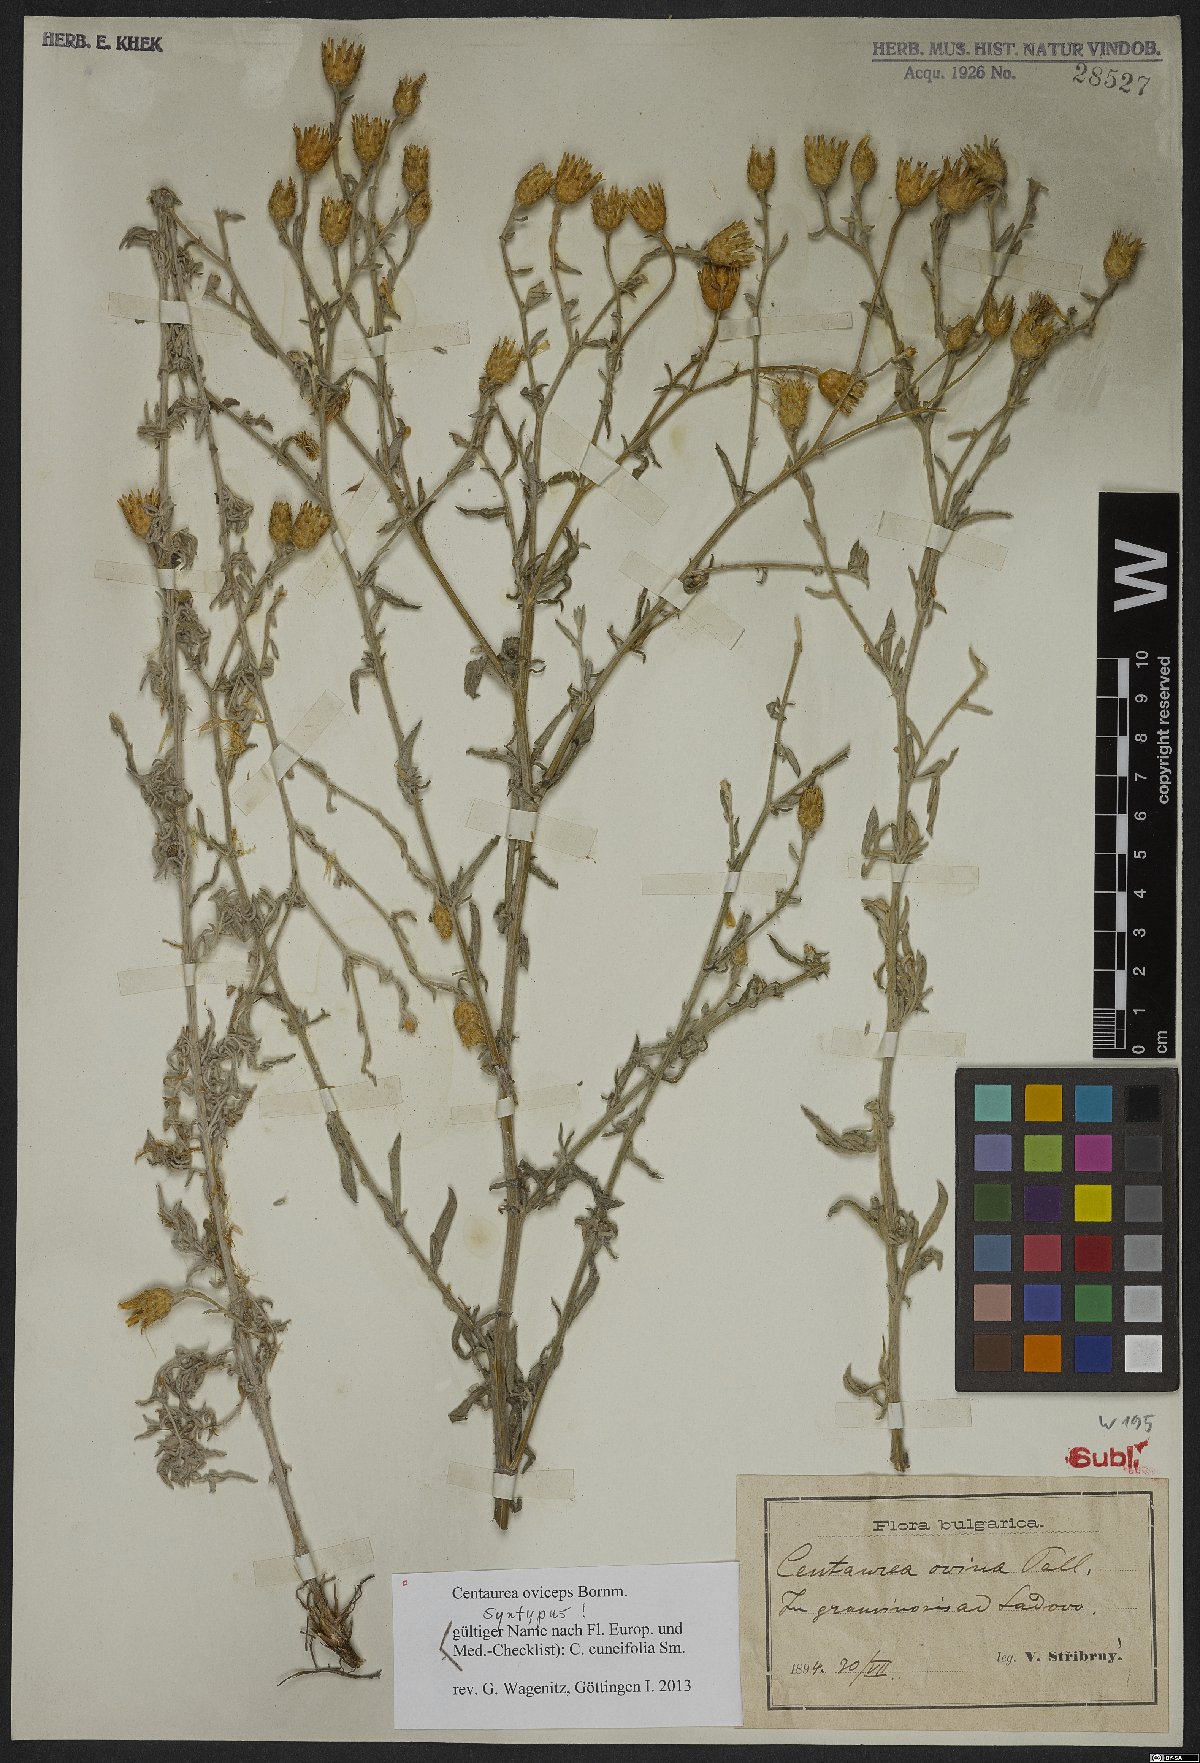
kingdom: Plantae
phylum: Tracheophyta
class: Magnoliopsida
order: Asterales
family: Asteraceae
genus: Centaurea
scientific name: Centaurea cuneifolia
